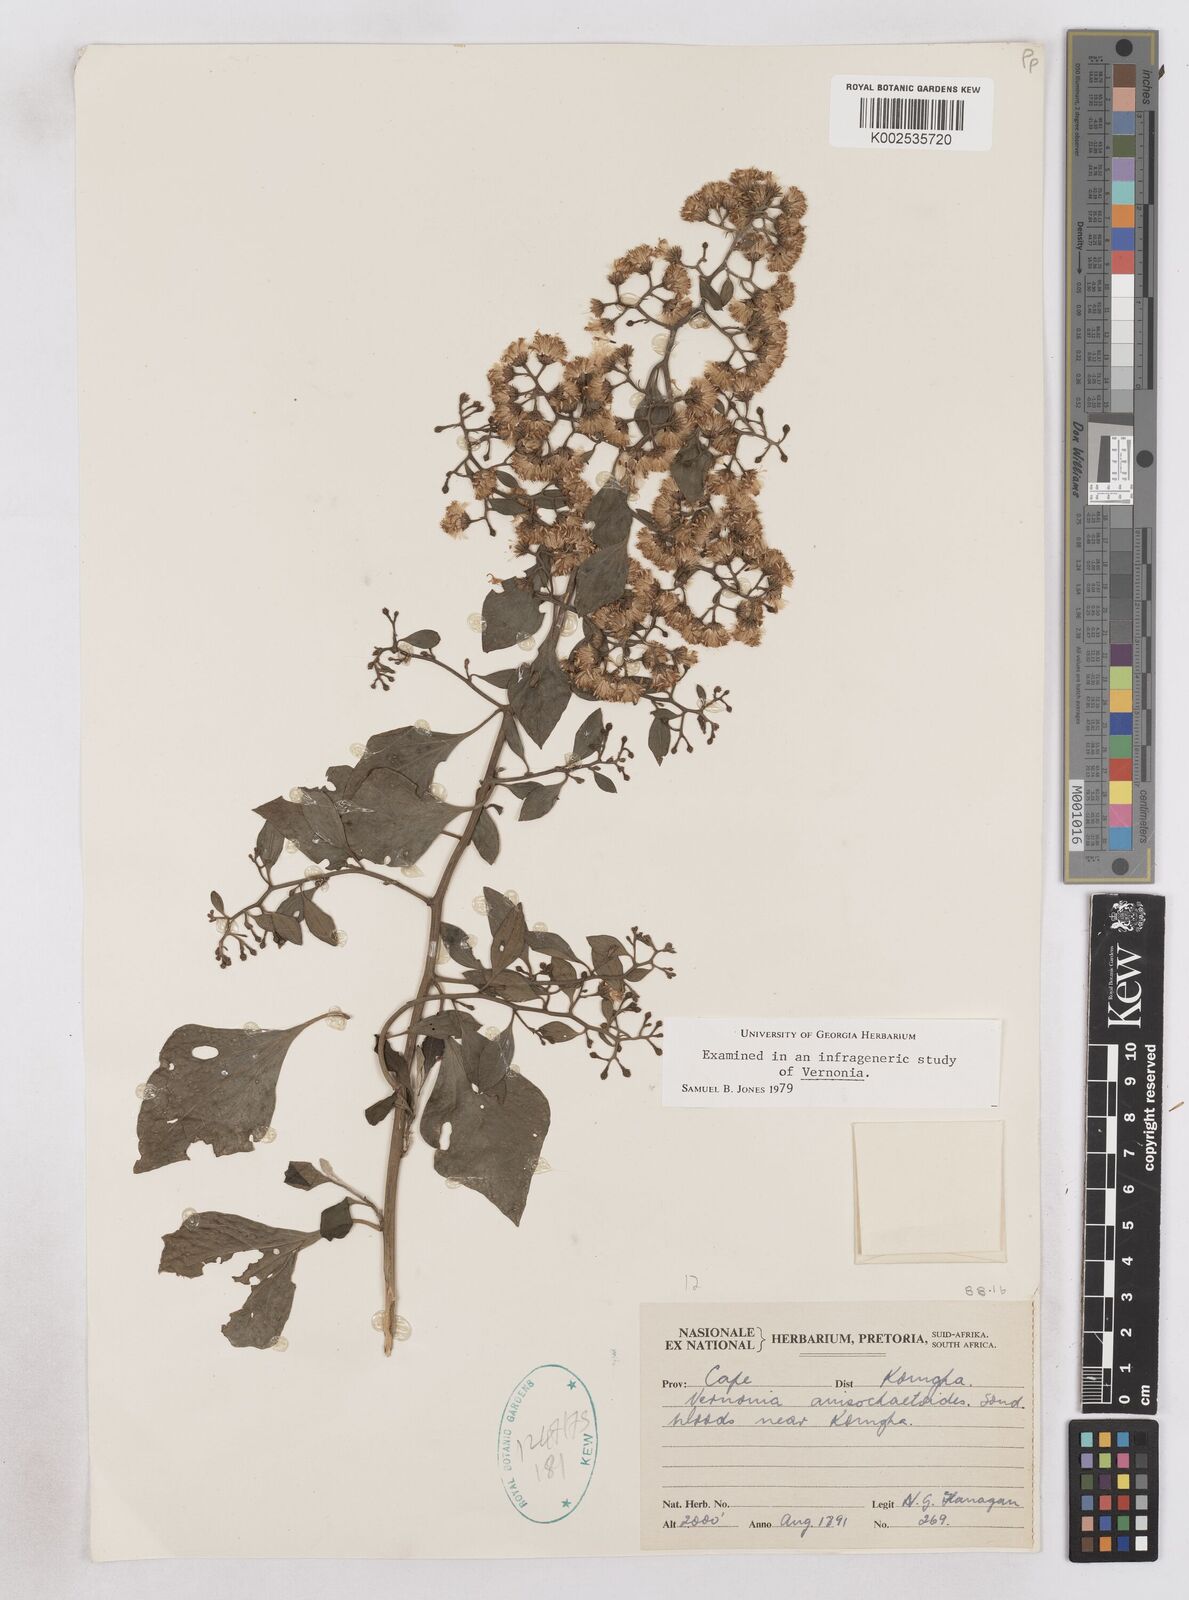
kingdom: Plantae
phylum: Tracheophyta
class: Magnoliopsida
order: Asterales
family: Asteraceae
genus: Distephanus
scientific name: Distephanus anisochaetoides
